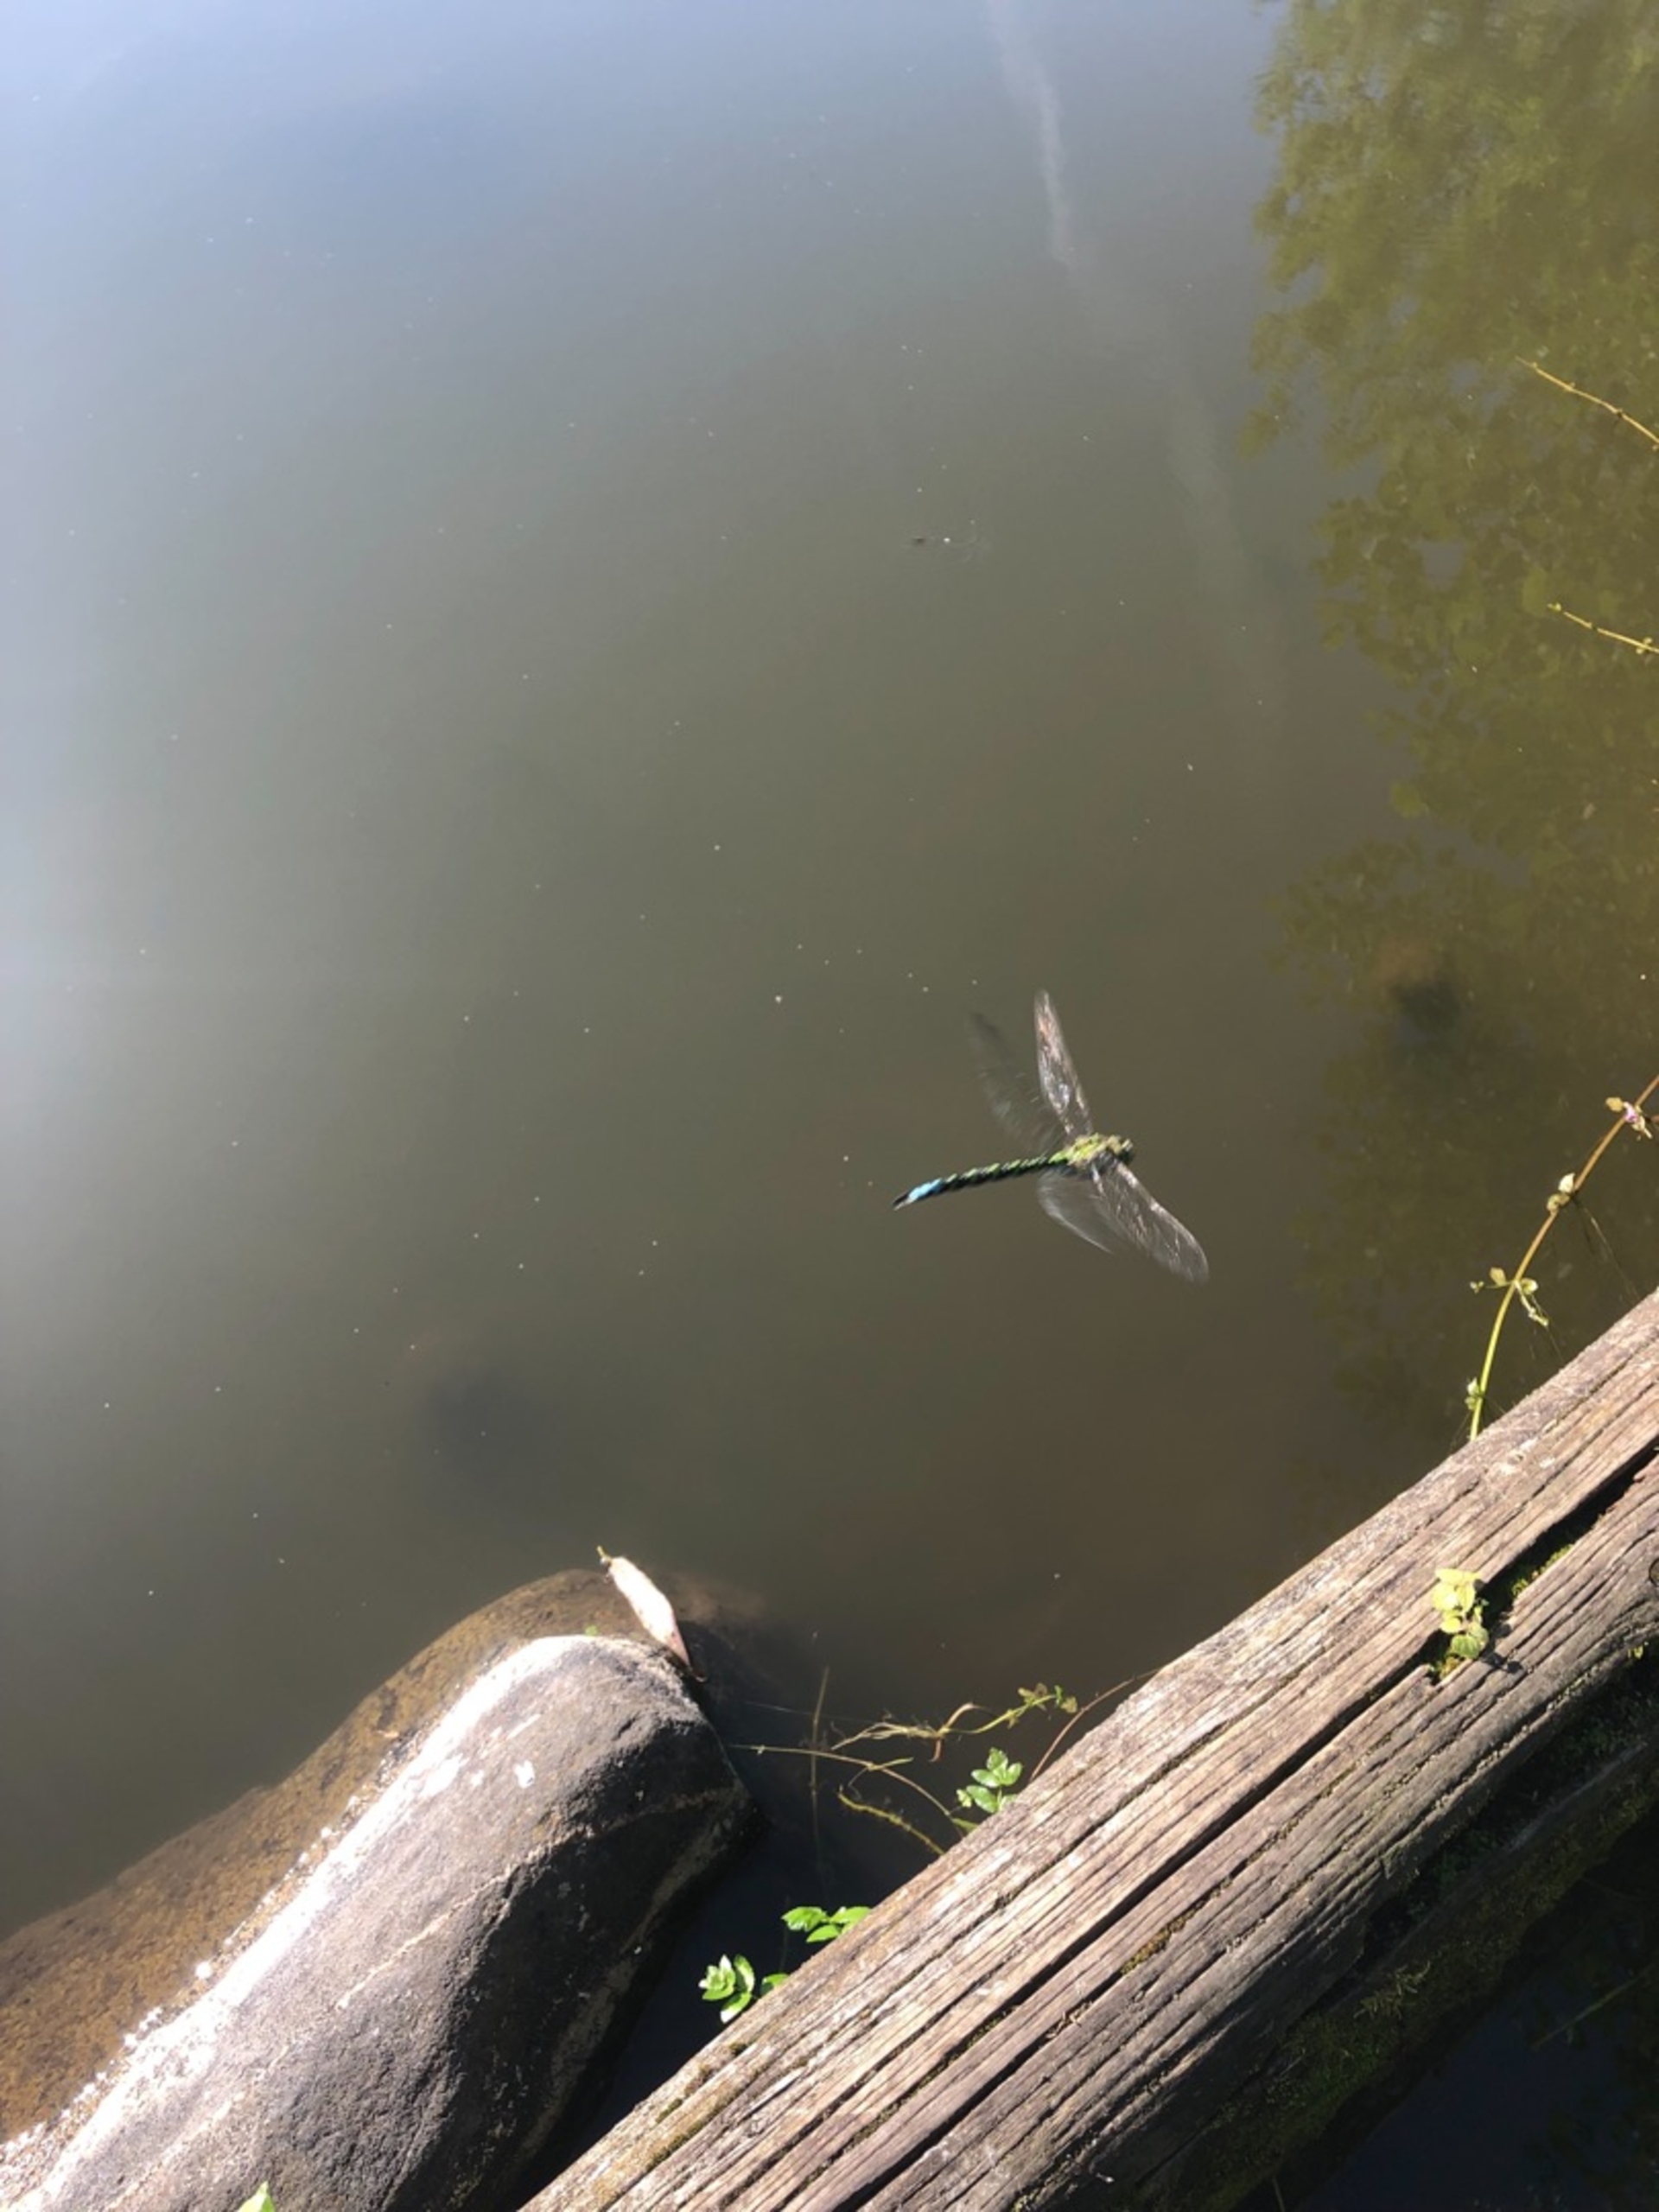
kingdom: Animalia
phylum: Arthropoda
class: Insecta
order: Odonata
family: Aeshnidae
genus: Aeshna
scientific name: Aeshna cyanea
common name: Blå mosaikguldsmed
